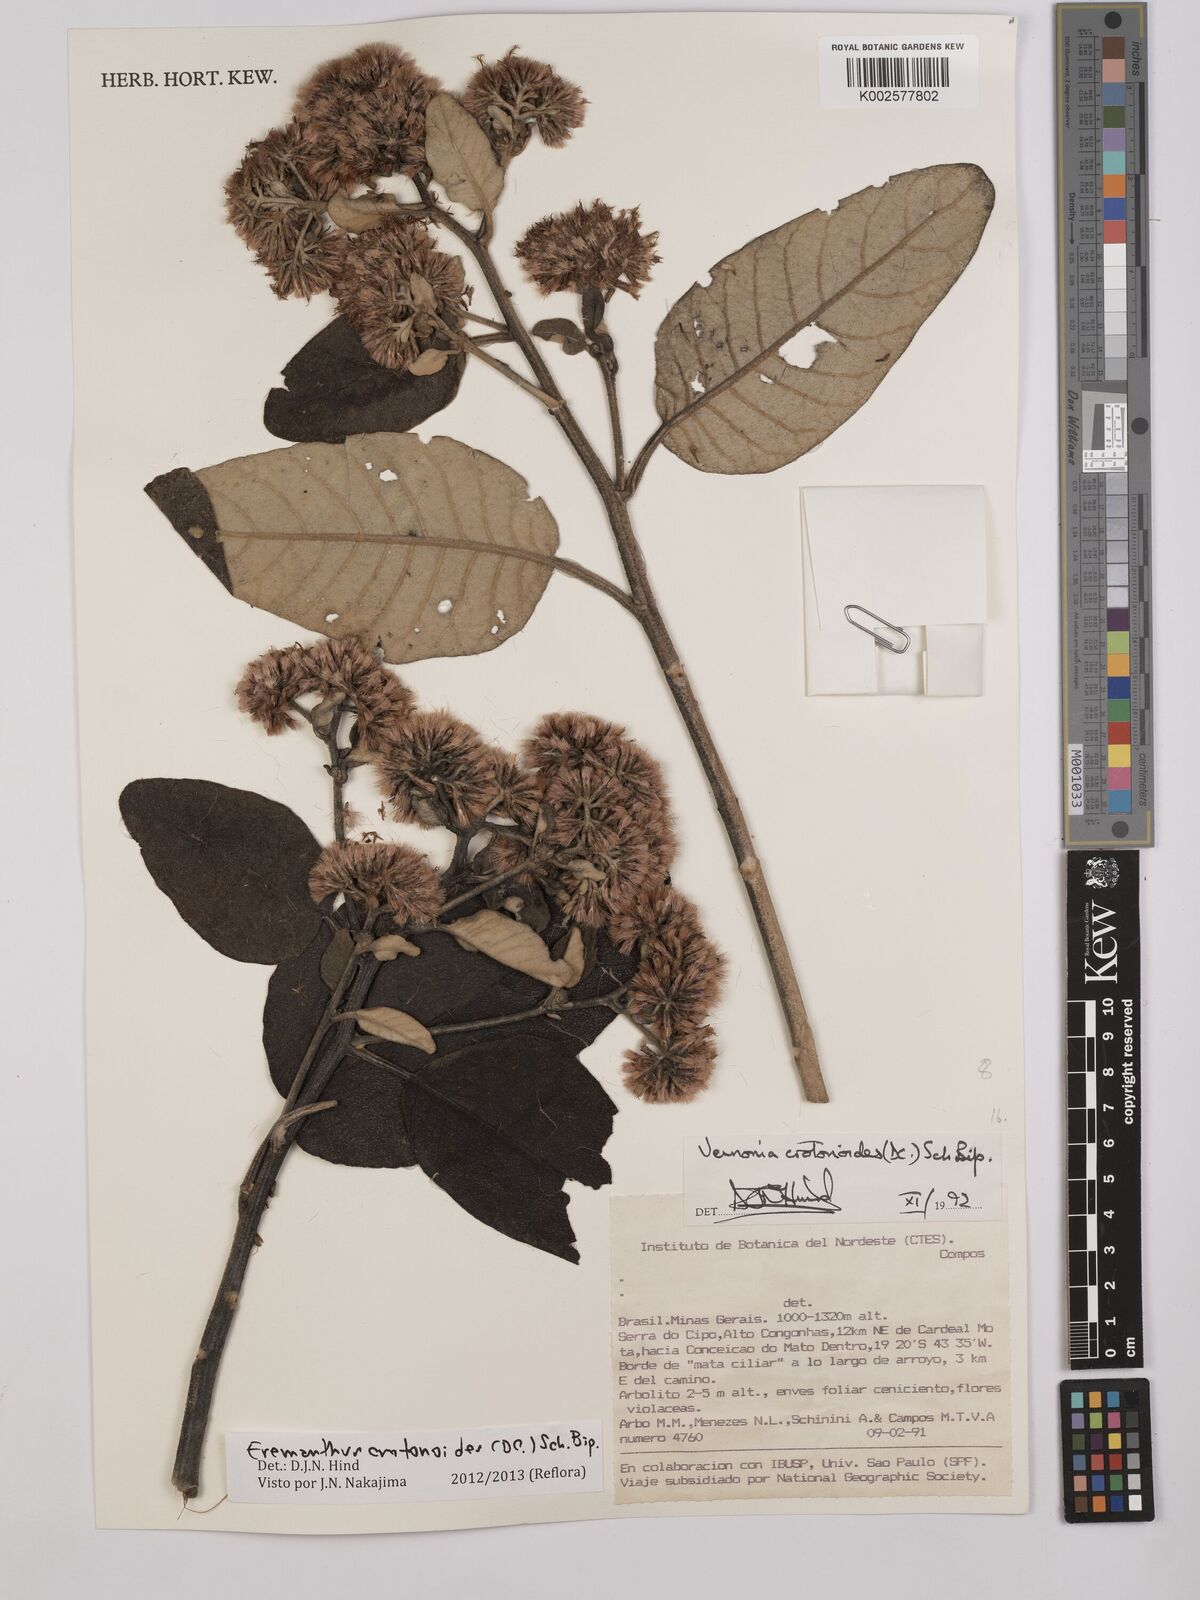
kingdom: Plantae
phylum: Tracheophyta
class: Magnoliopsida
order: Asterales
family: Asteraceae
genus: Eremanthus
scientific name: Eremanthus crotonoides
